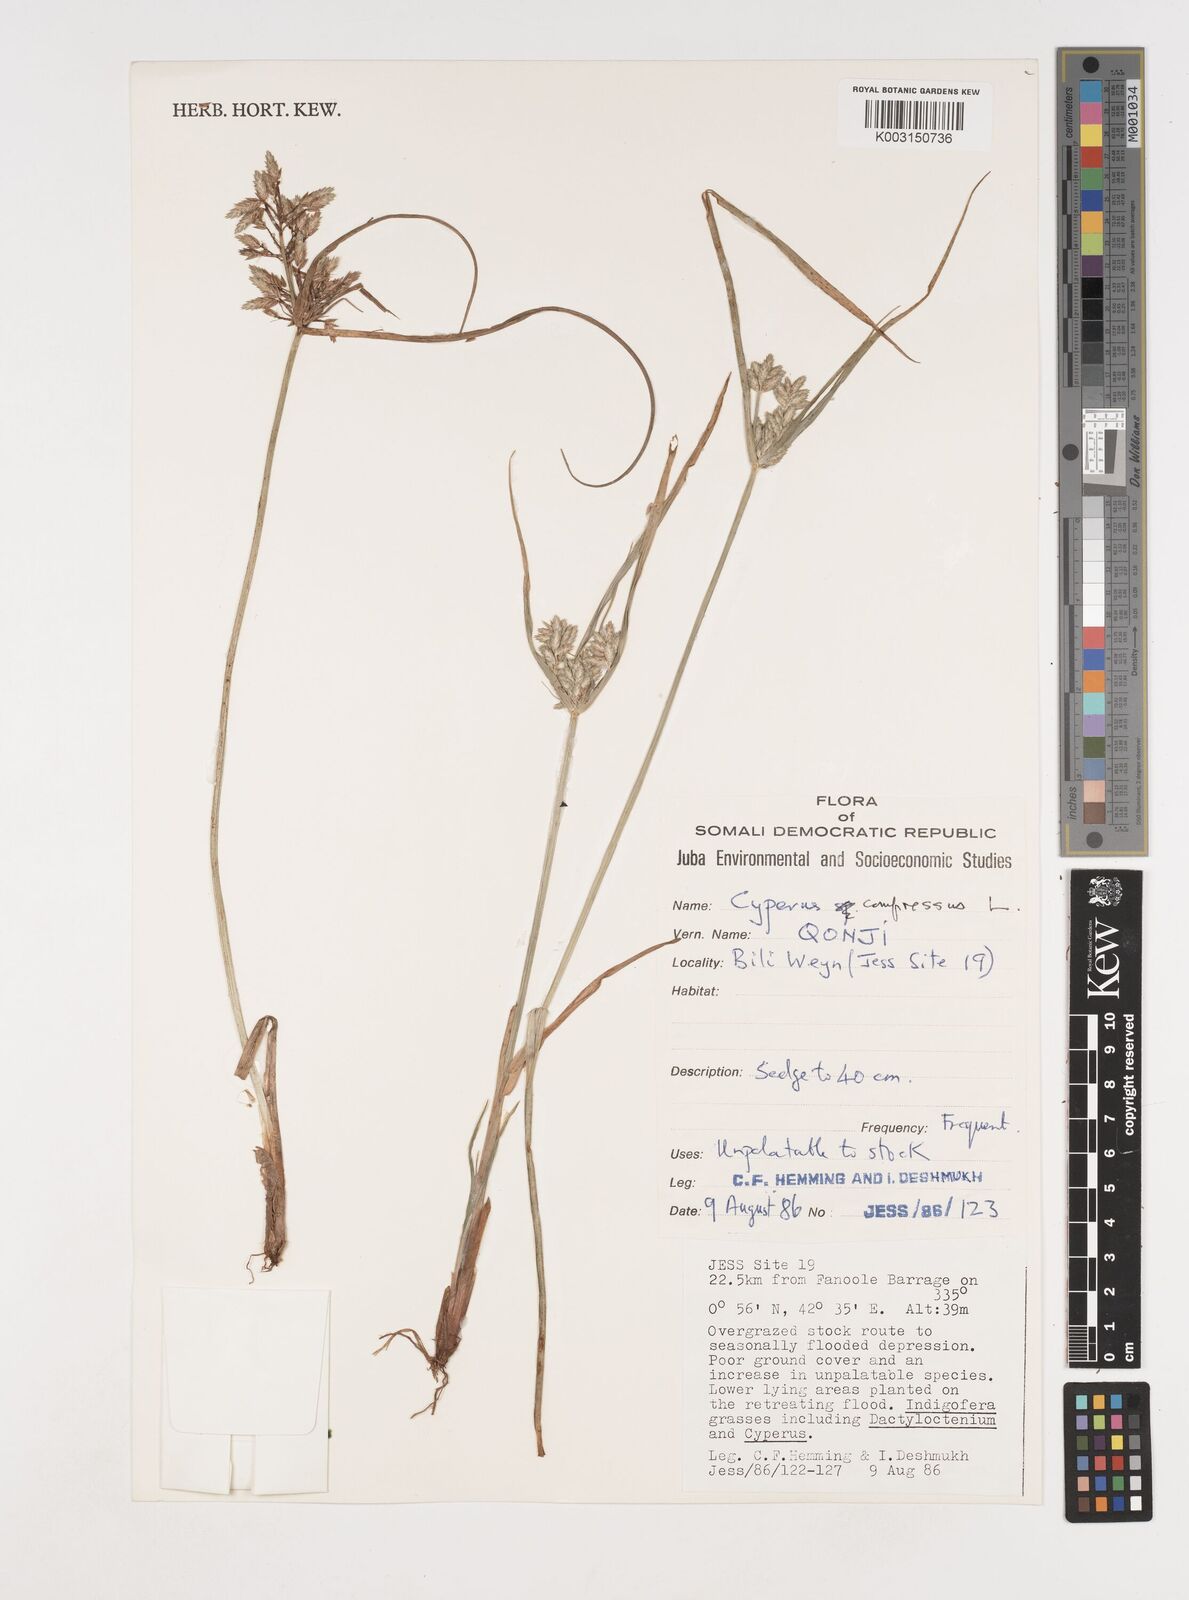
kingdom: Plantae
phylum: Tracheophyta
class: Liliopsida
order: Poales
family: Cyperaceae
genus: Cyperus
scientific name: Cyperus compressus
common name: Poorland flatsedge
